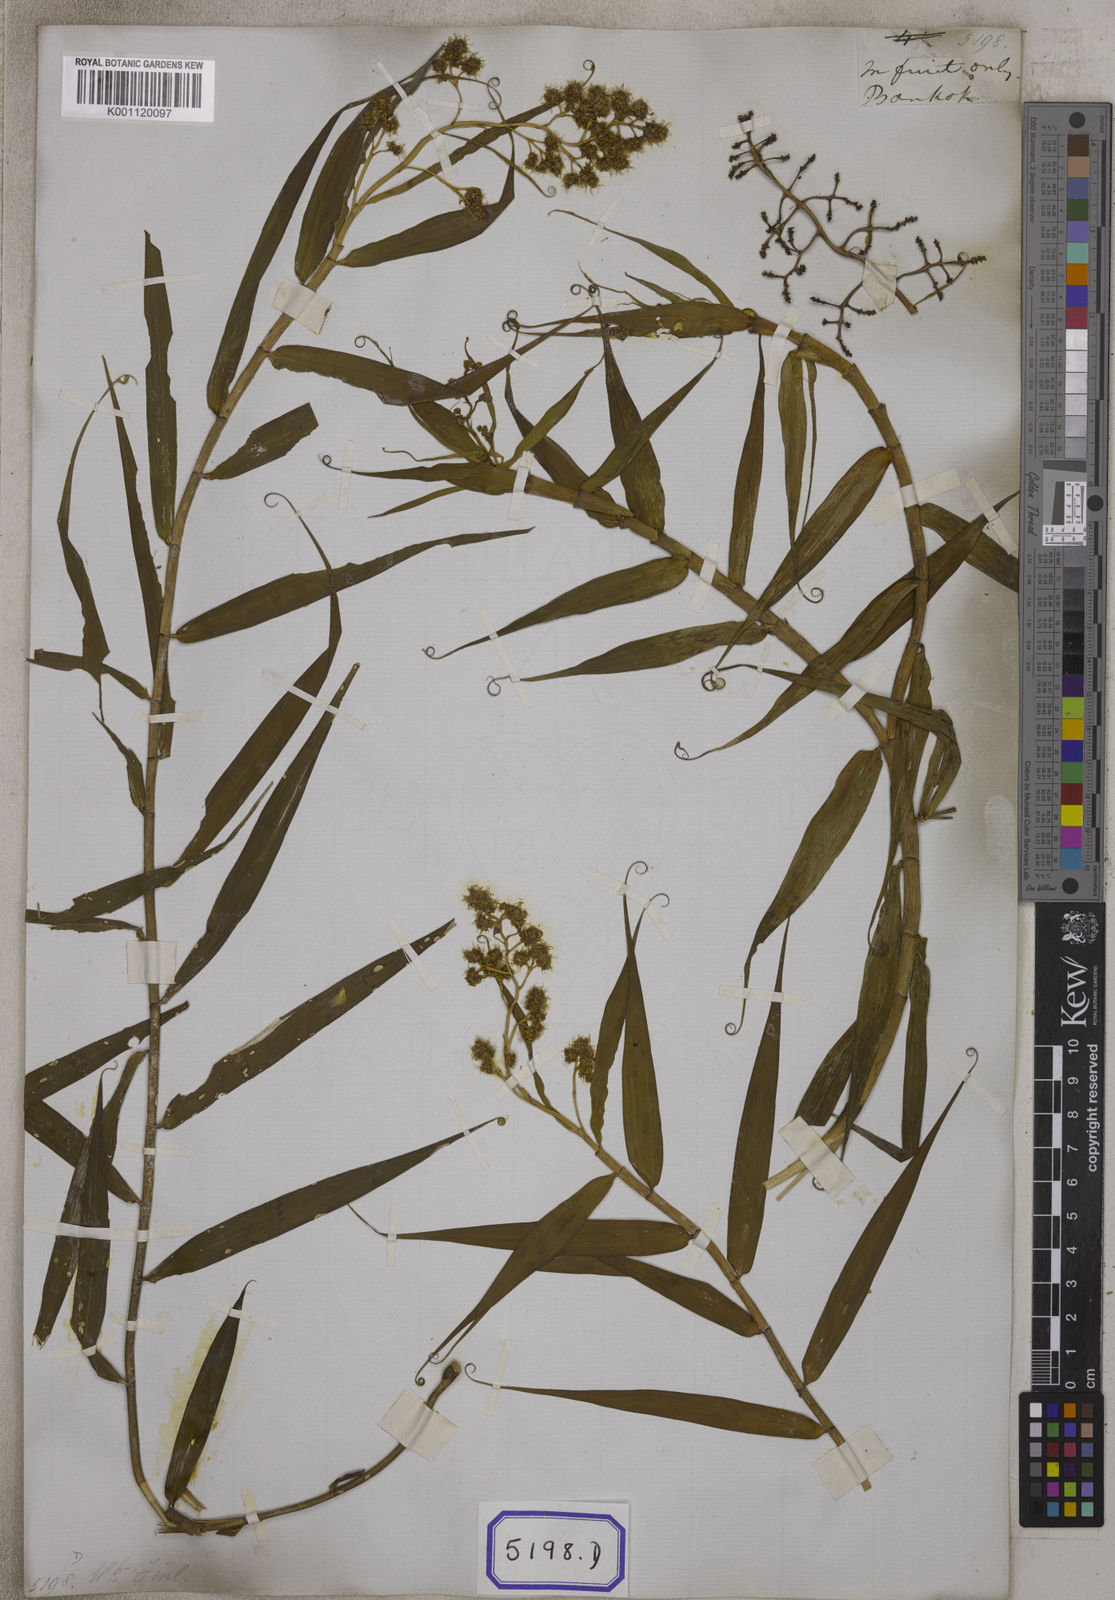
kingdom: Plantae
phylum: Tracheophyta
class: Liliopsida
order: Poales
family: Flagellariaceae
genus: Flagellaria
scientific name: Flagellaria indica
